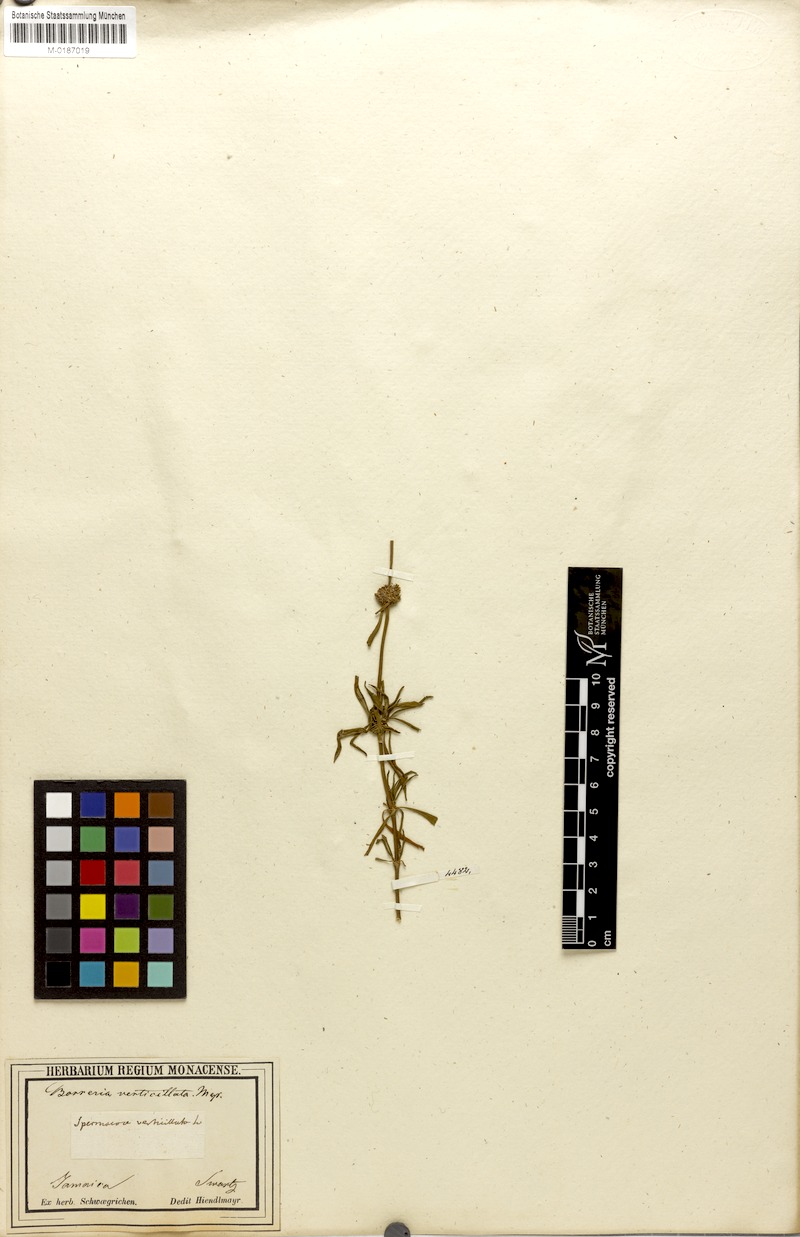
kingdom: Plantae
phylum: Tracheophyta
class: Magnoliopsida
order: Gentianales
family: Rubiaceae
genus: Spermacoce
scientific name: Spermacoce verticillata
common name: Shrubby false buttonweed
